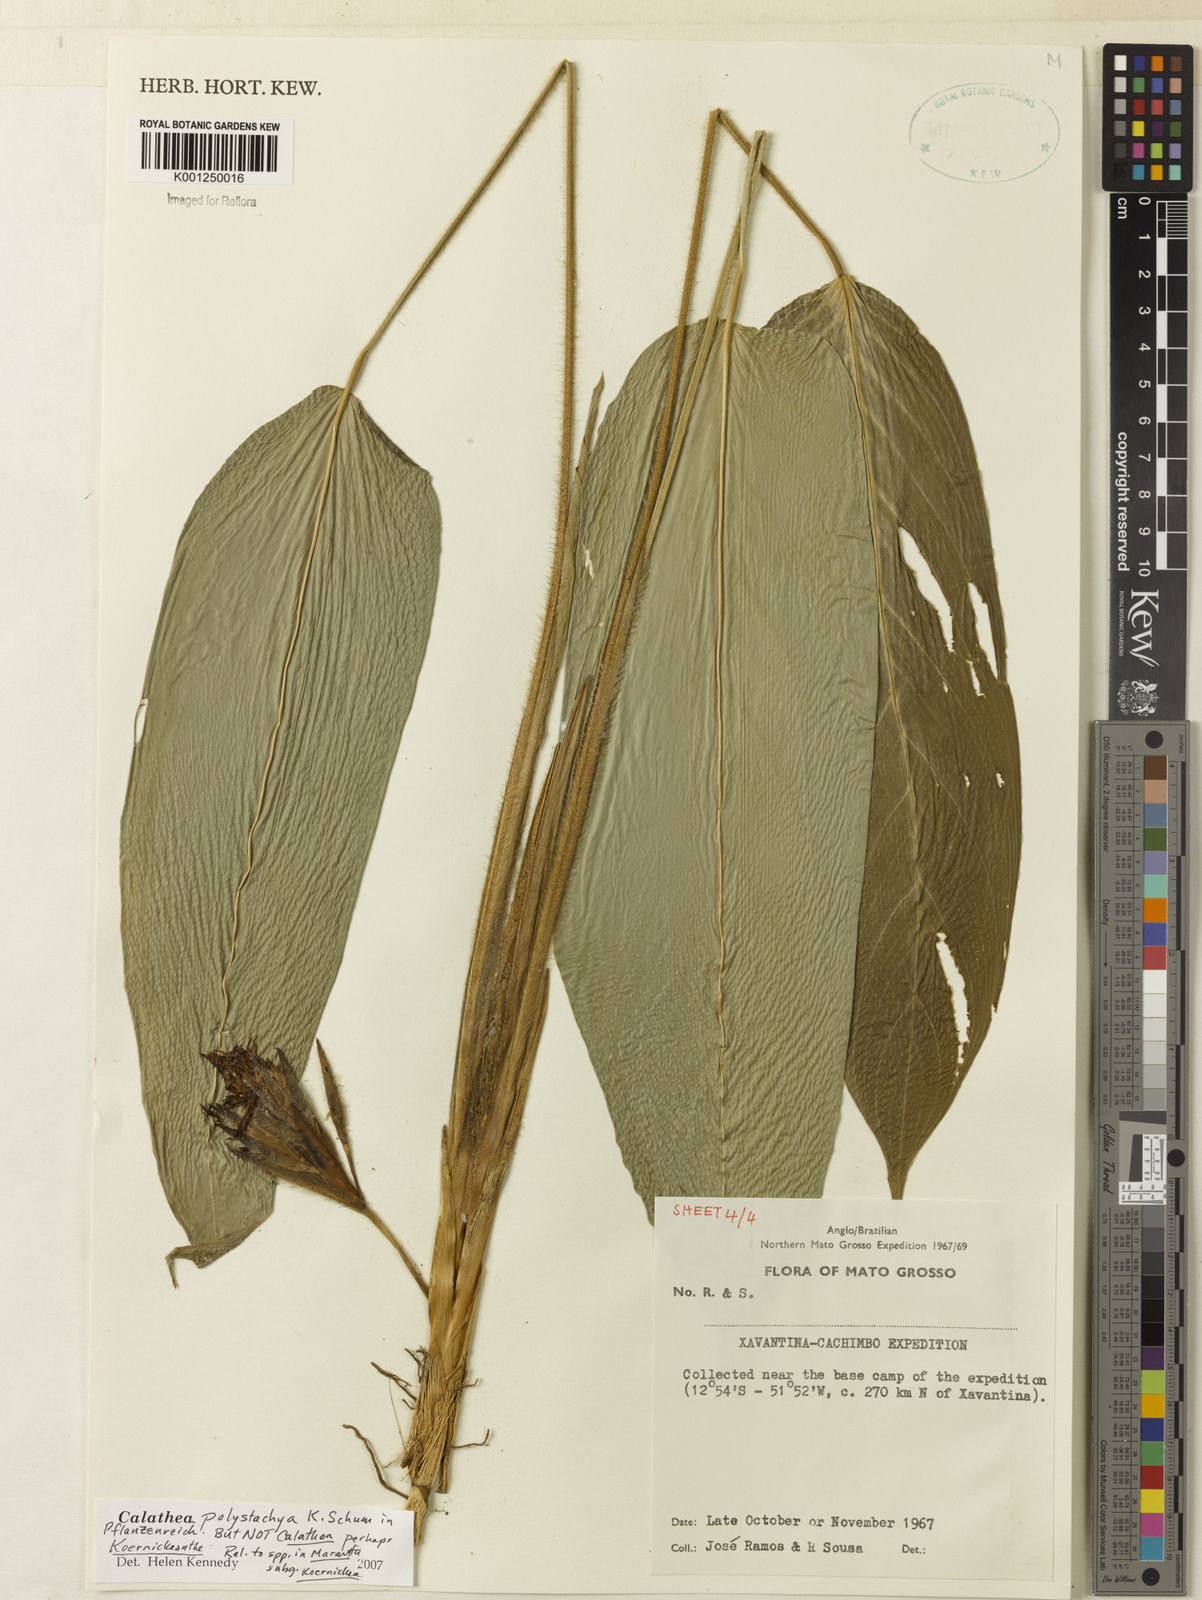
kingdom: Plantae
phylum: Tracheophyta
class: Liliopsida
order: Zingiberales
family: Marantaceae
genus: Ischnosiphon
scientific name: Ischnosiphon polyphyllus
